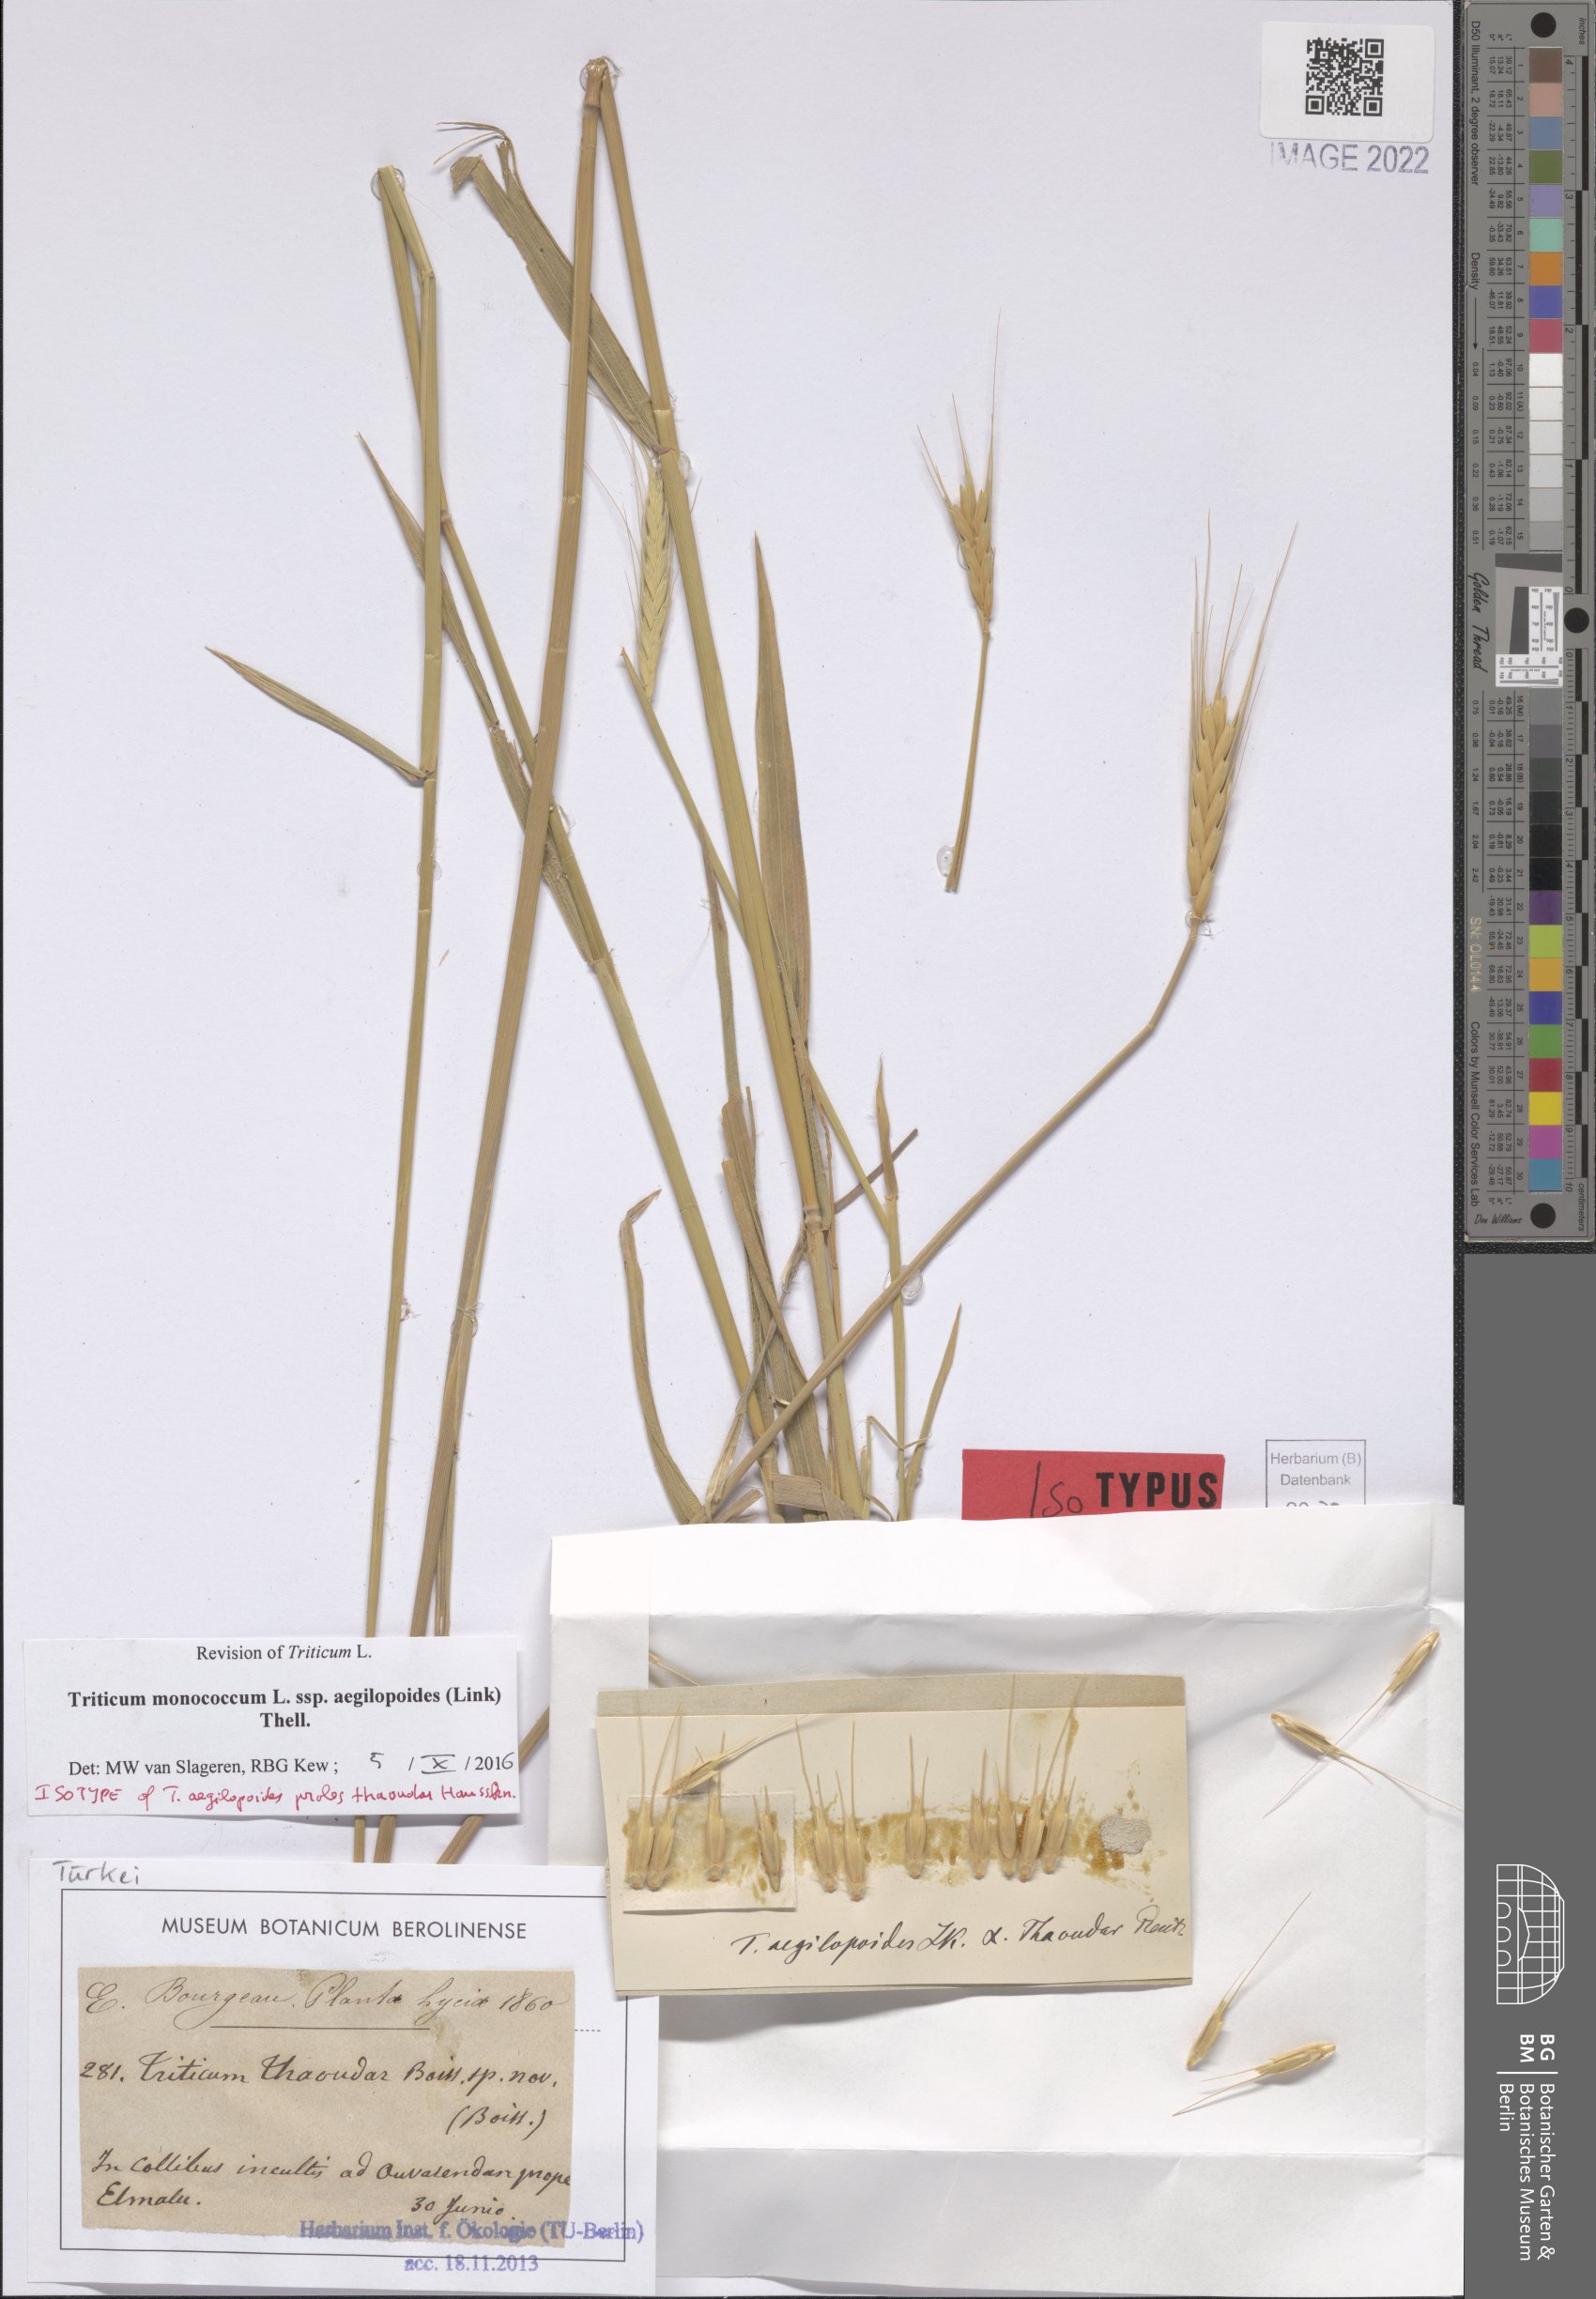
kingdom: Plantae
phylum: Tracheophyta
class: Liliopsida
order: Poales
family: Poaceae
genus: Triticum
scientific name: Triticum monococcum
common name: Einkorn
